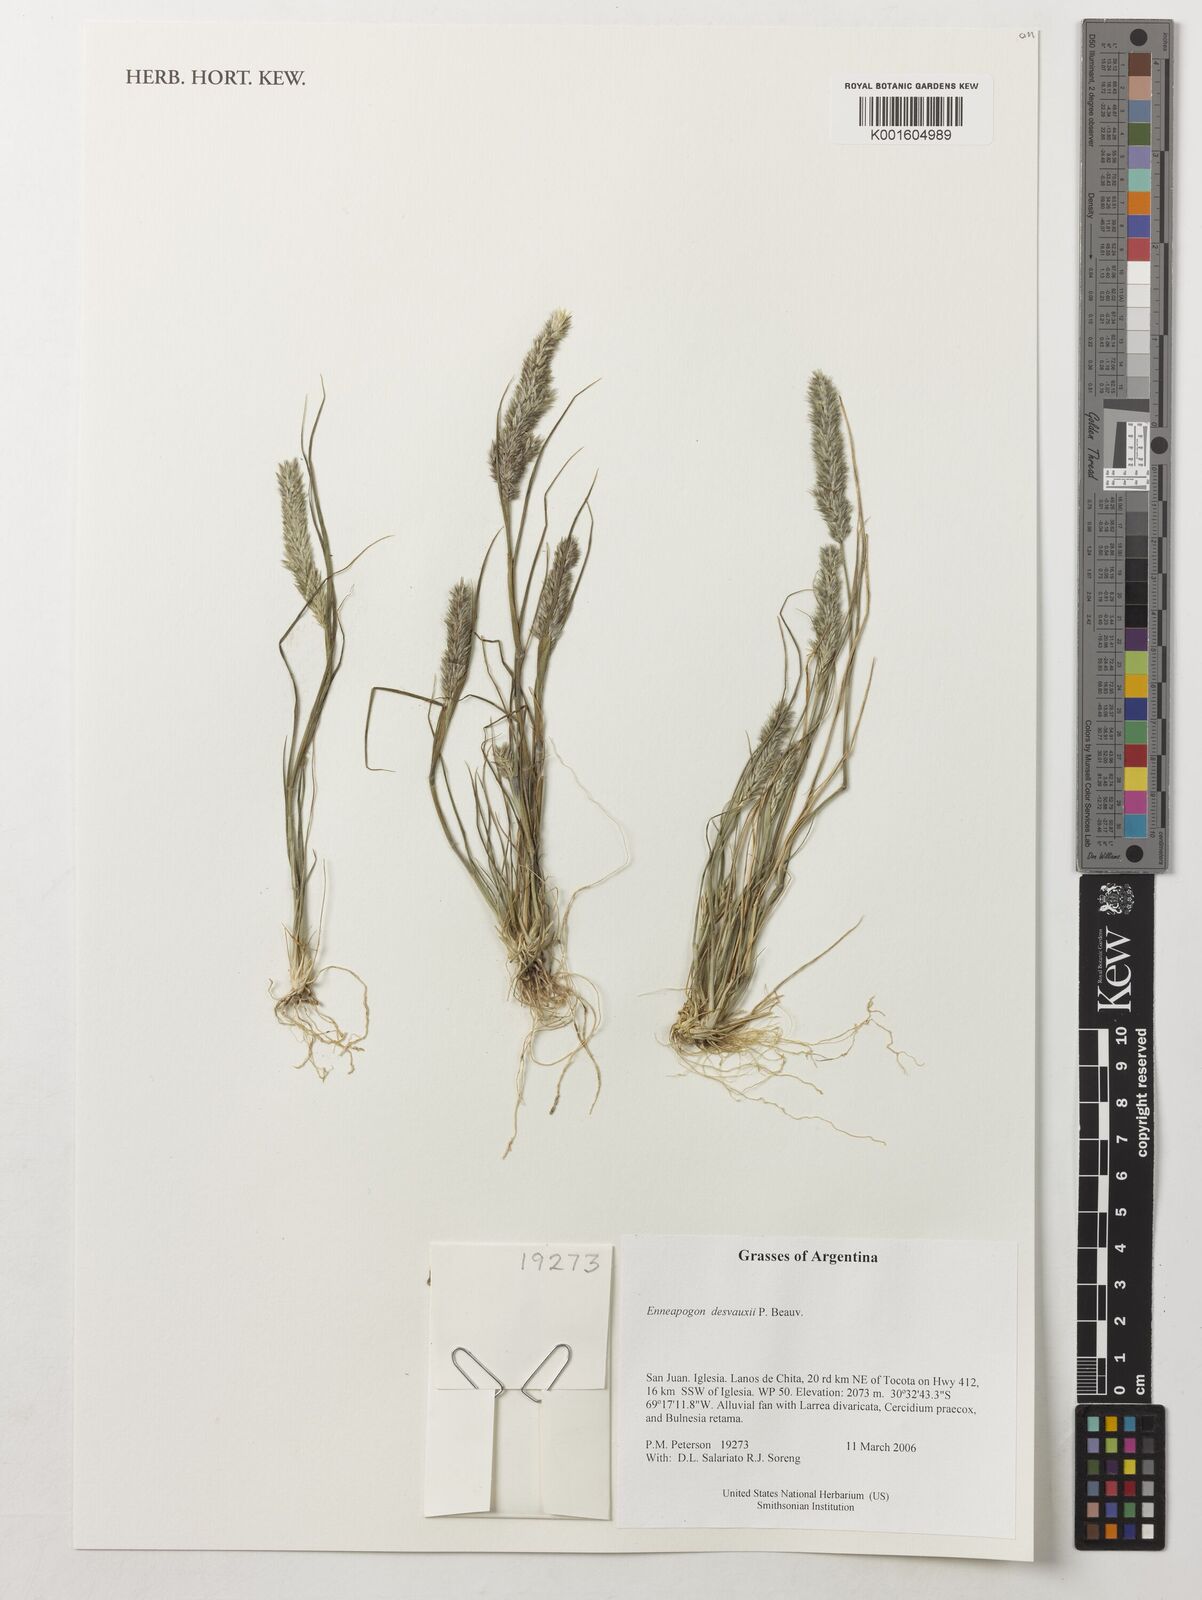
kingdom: Plantae
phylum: Tracheophyta
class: Liliopsida
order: Poales
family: Poaceae
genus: Enneapogon
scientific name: Enneapogon desvauxii
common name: Feather pappus grass
